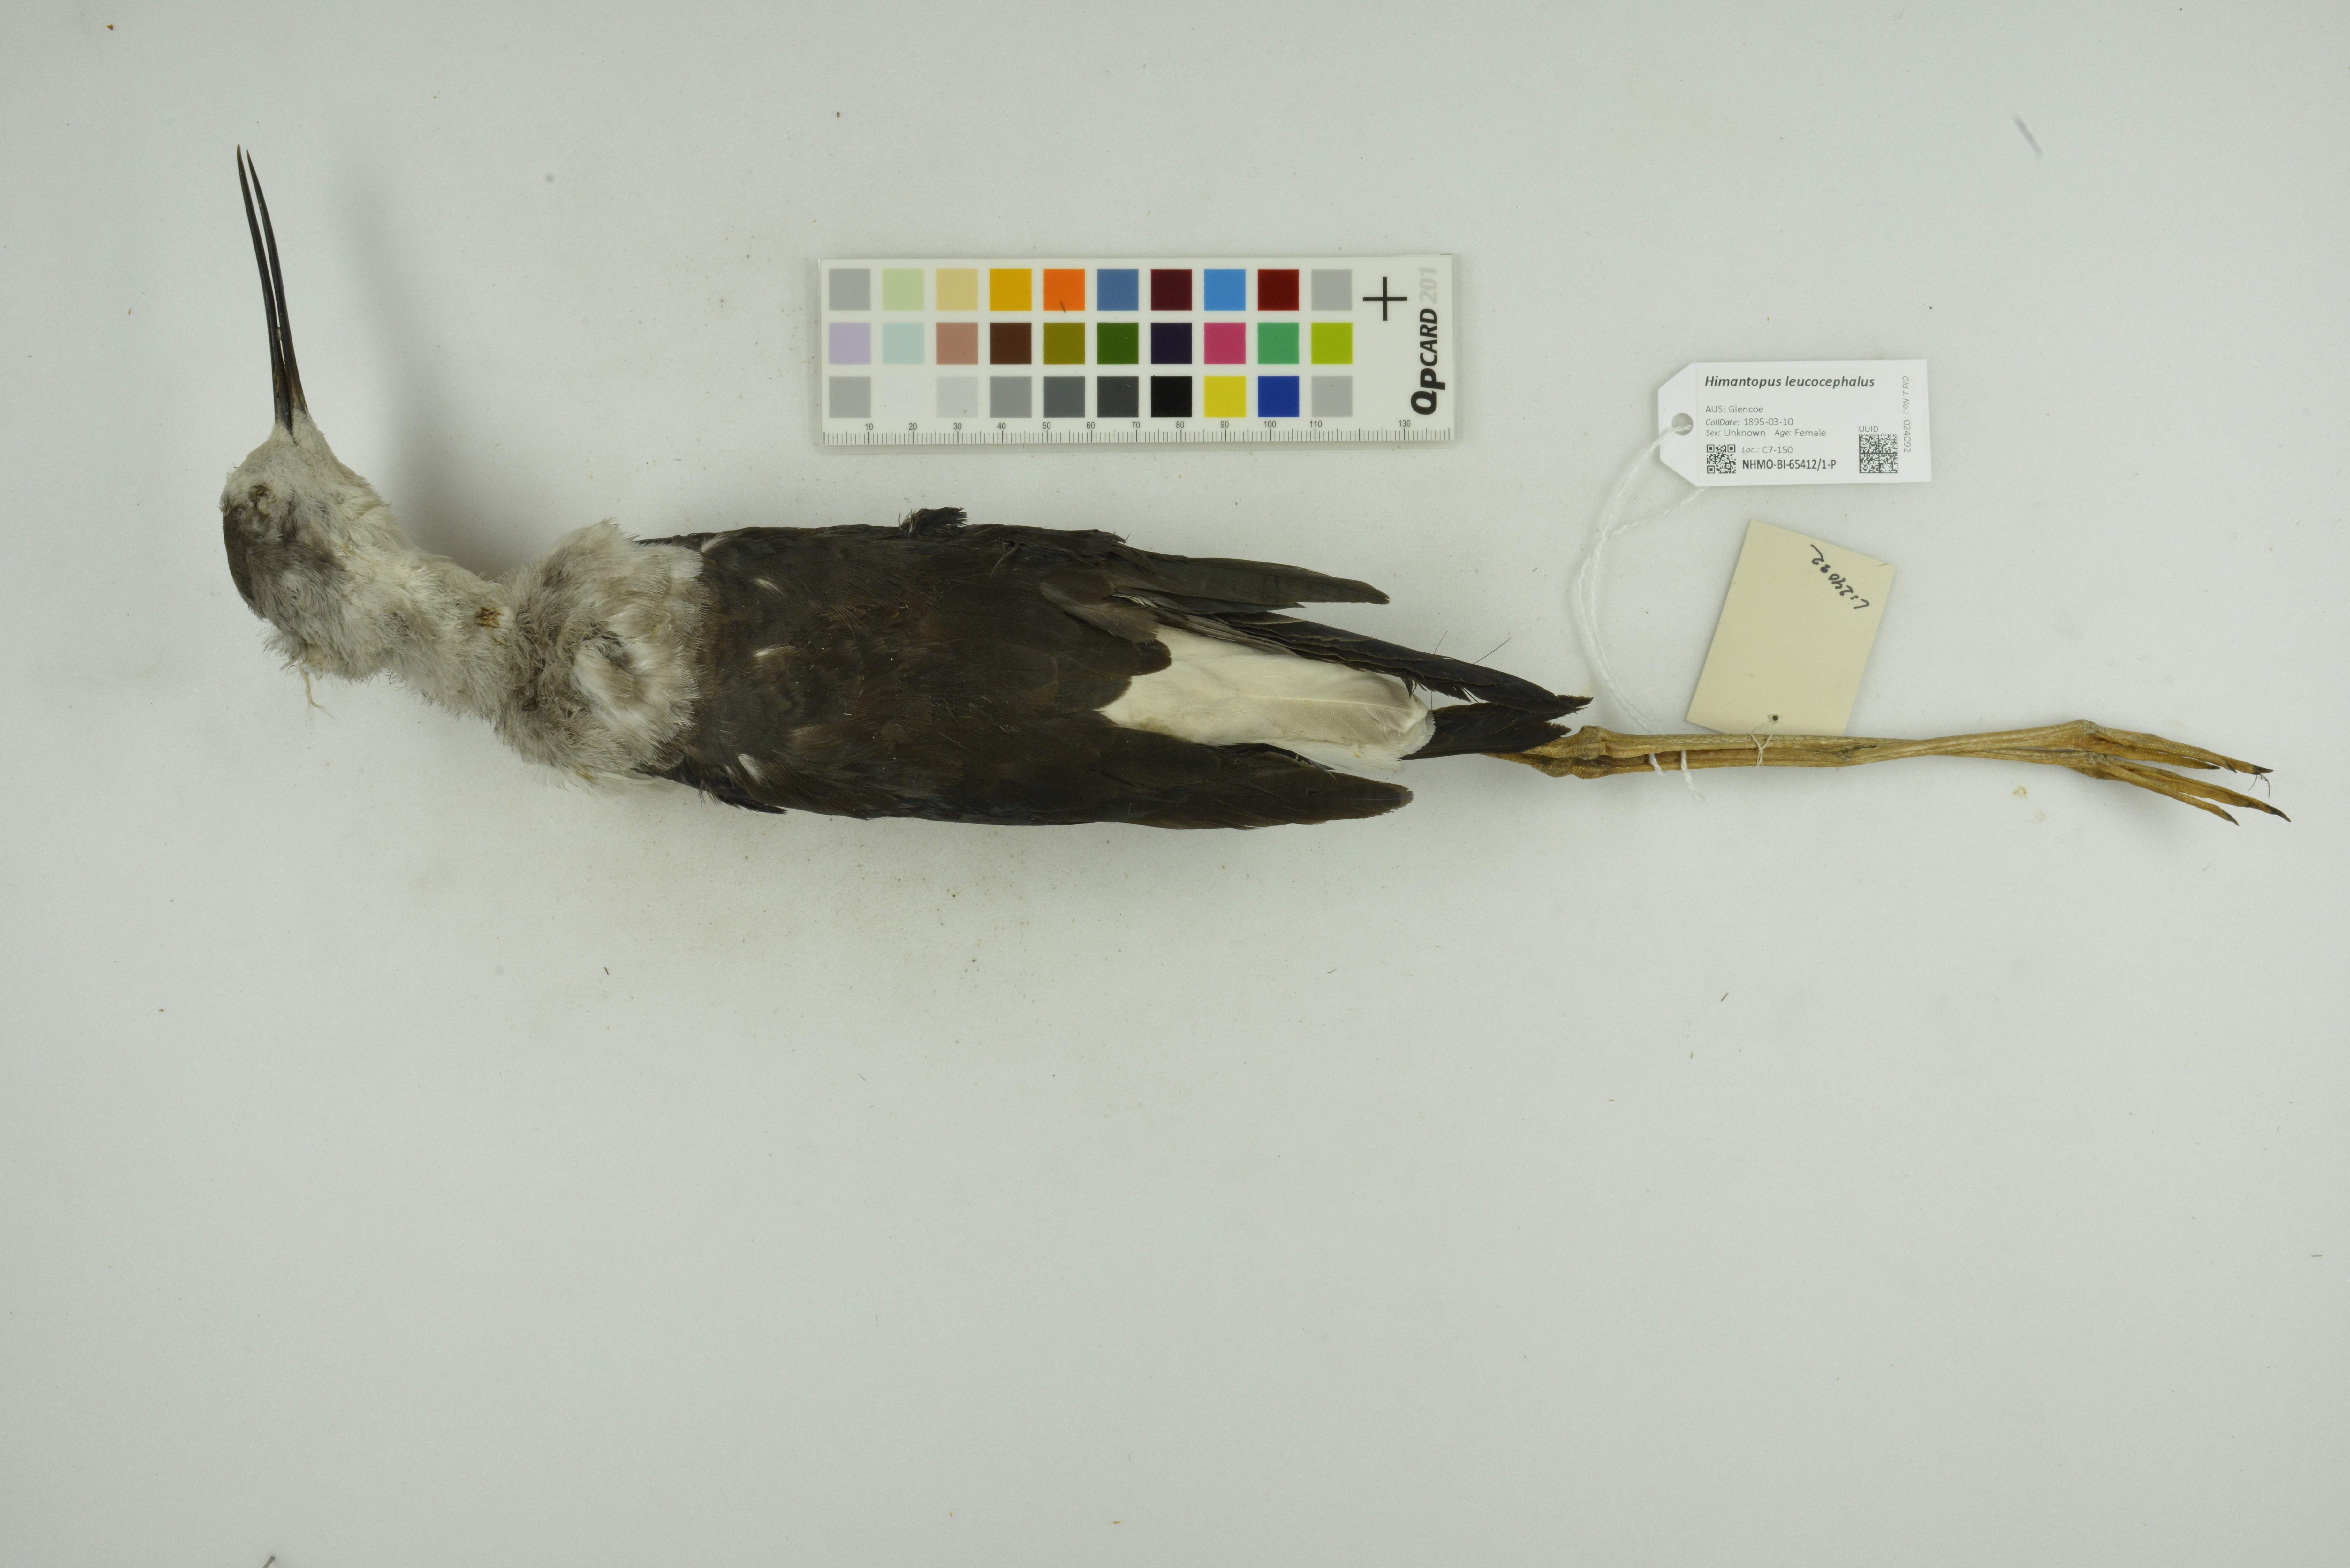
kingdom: Animalia
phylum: Chordata
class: Aves
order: Charadriiformes
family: Recurvirostridae
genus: Himantopus
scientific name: Himantopus leucocephalus
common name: White-headed stilt
